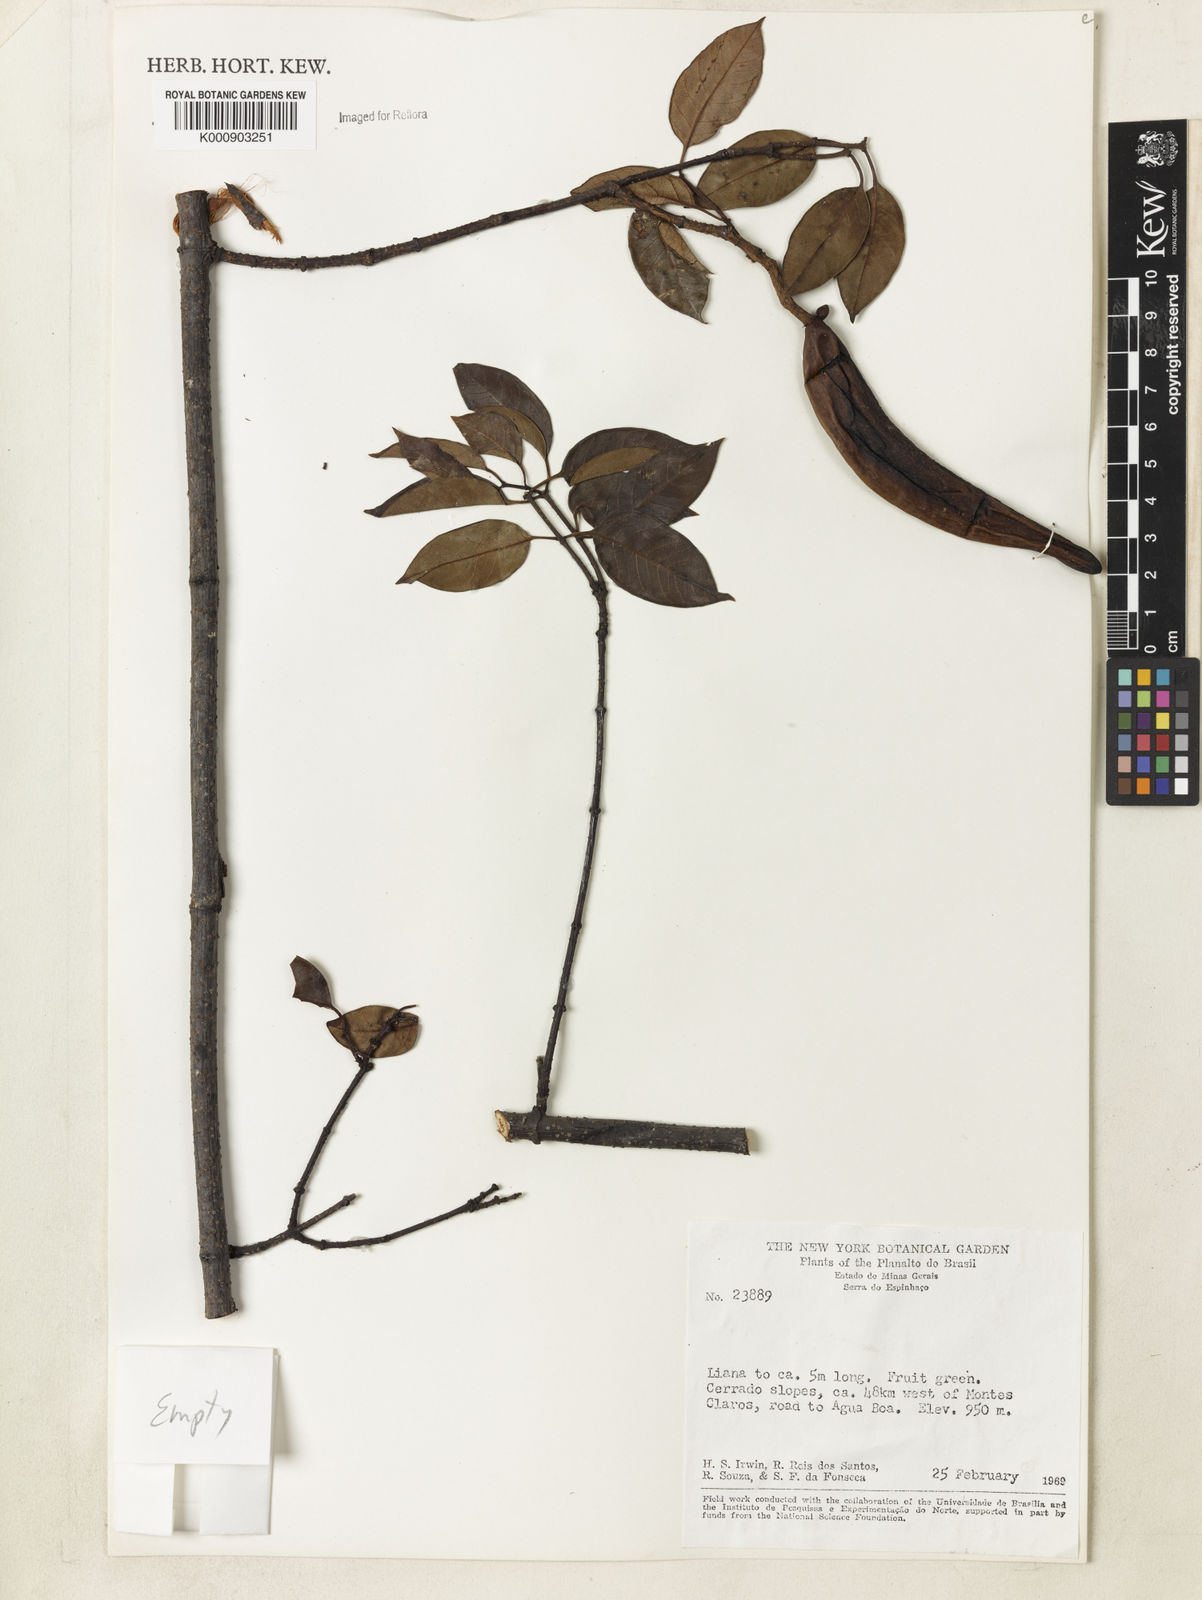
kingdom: Plantae
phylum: Tracheophyta
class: Magnoliopsida
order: Lamiales
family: Bignoniaceae
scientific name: Bignoniaceae
